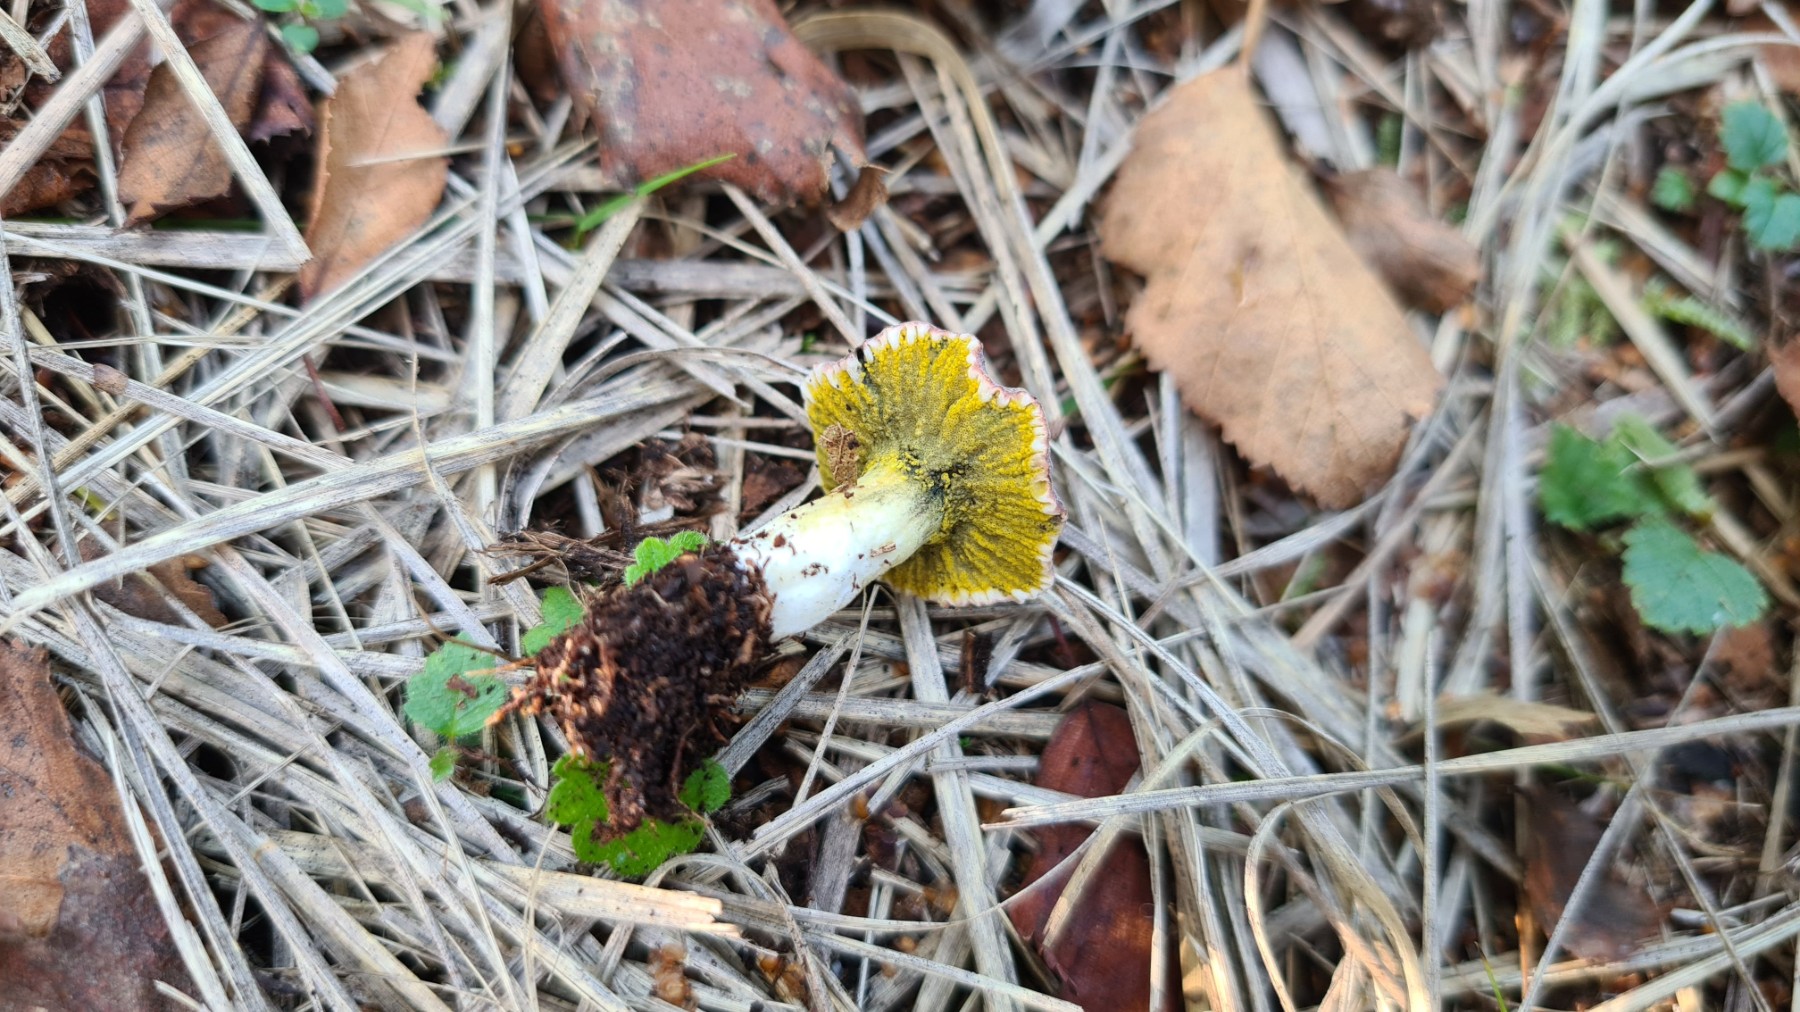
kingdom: Fungi
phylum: Ascomycota
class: Sordariomycetes
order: Hypocreales
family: Hypocreaceae
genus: Hypomyces
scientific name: Hypomyces luteovirens
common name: gulgrøn snylteskorpe
